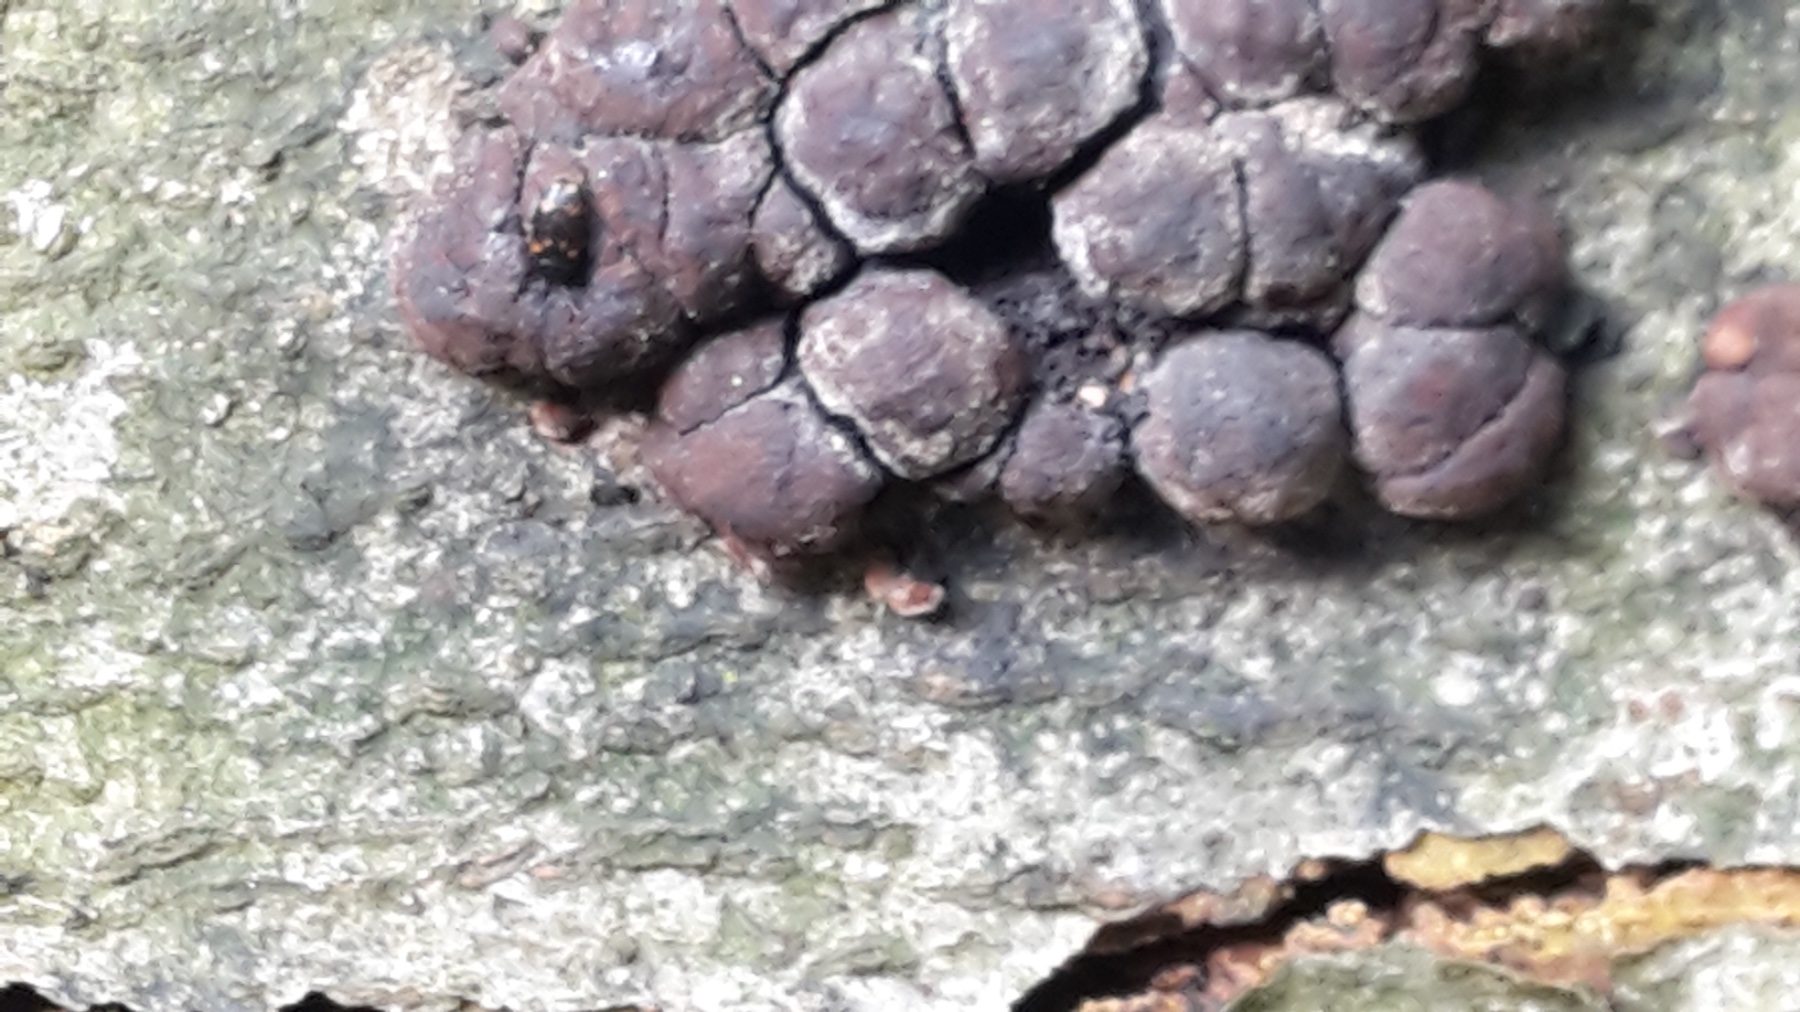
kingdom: Fungi
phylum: Ascomycota
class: Sordariomycetes
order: Xylariales
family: Hypoxylaceae
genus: Hypoxylon
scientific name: Hypoxylon fragiforme
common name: kuljordbær
